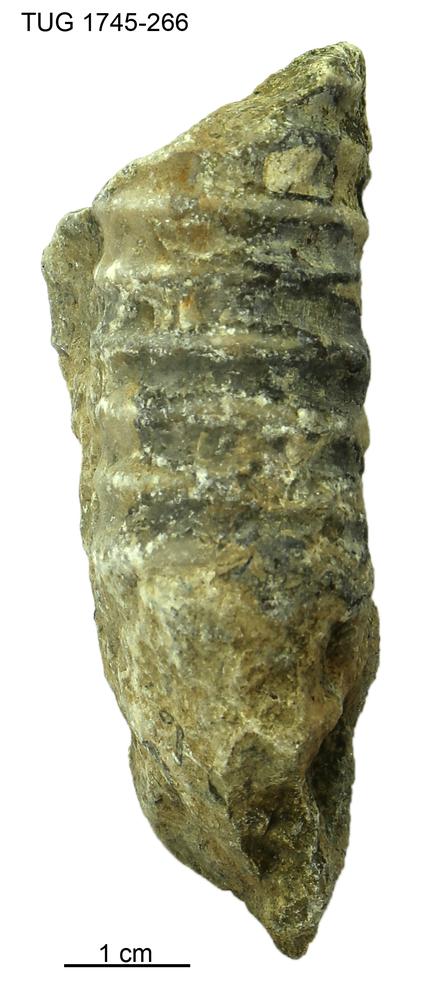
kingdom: Animalia
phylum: Mollusca
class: Cephalopoda
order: Orthocerida
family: Dawsonoceratidae
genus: Palaeodawsonocerina
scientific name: Palaeodawsonocerina Spyroceras senckenbergi
